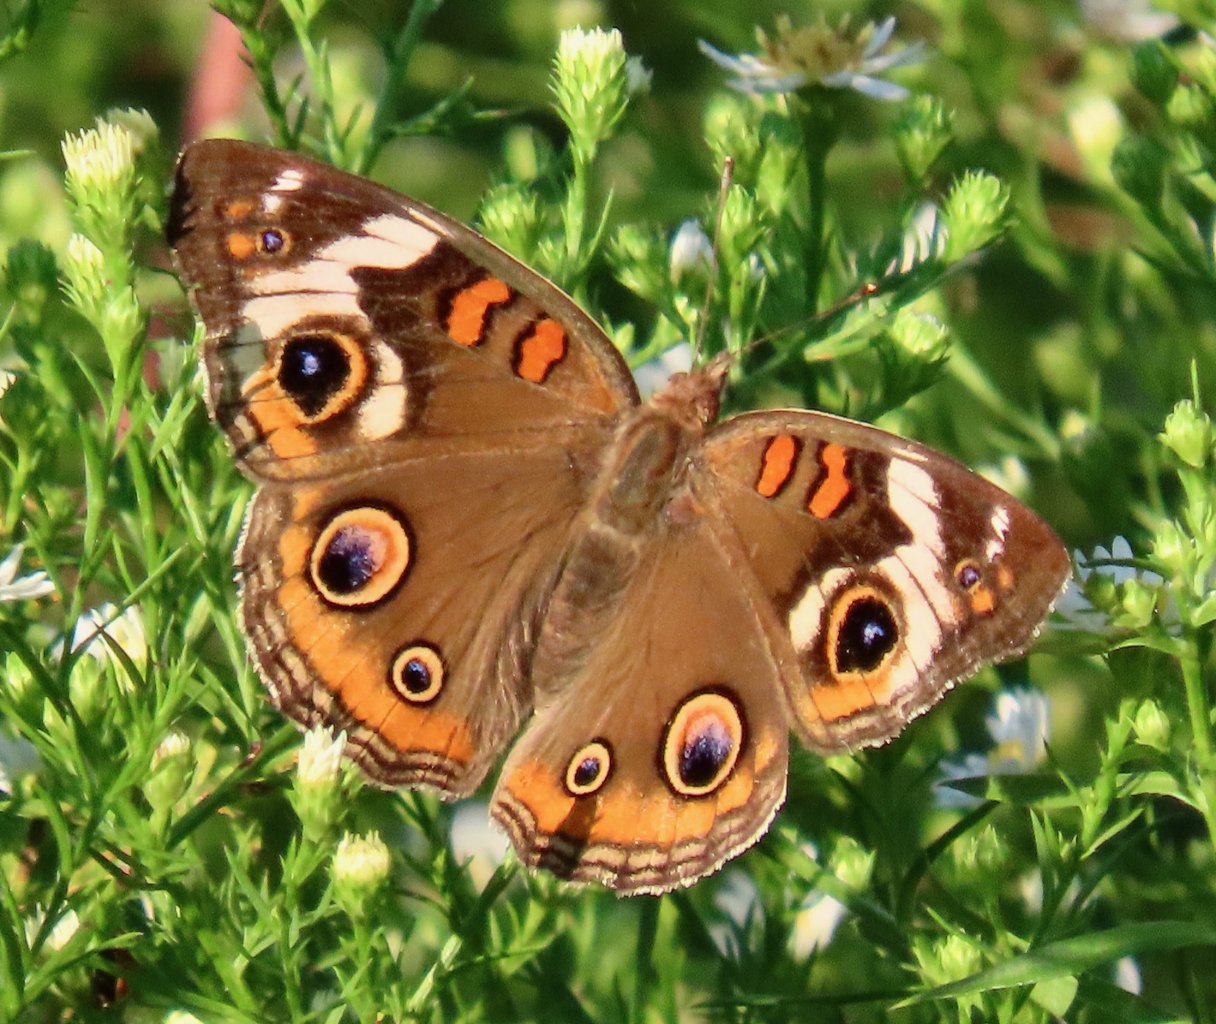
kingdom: Animalia
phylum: Arthropoda
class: Insecta
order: Lepidoptera
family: Nymphalidae
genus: Junonia
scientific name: Junonia coenia
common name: Common Buckeye
